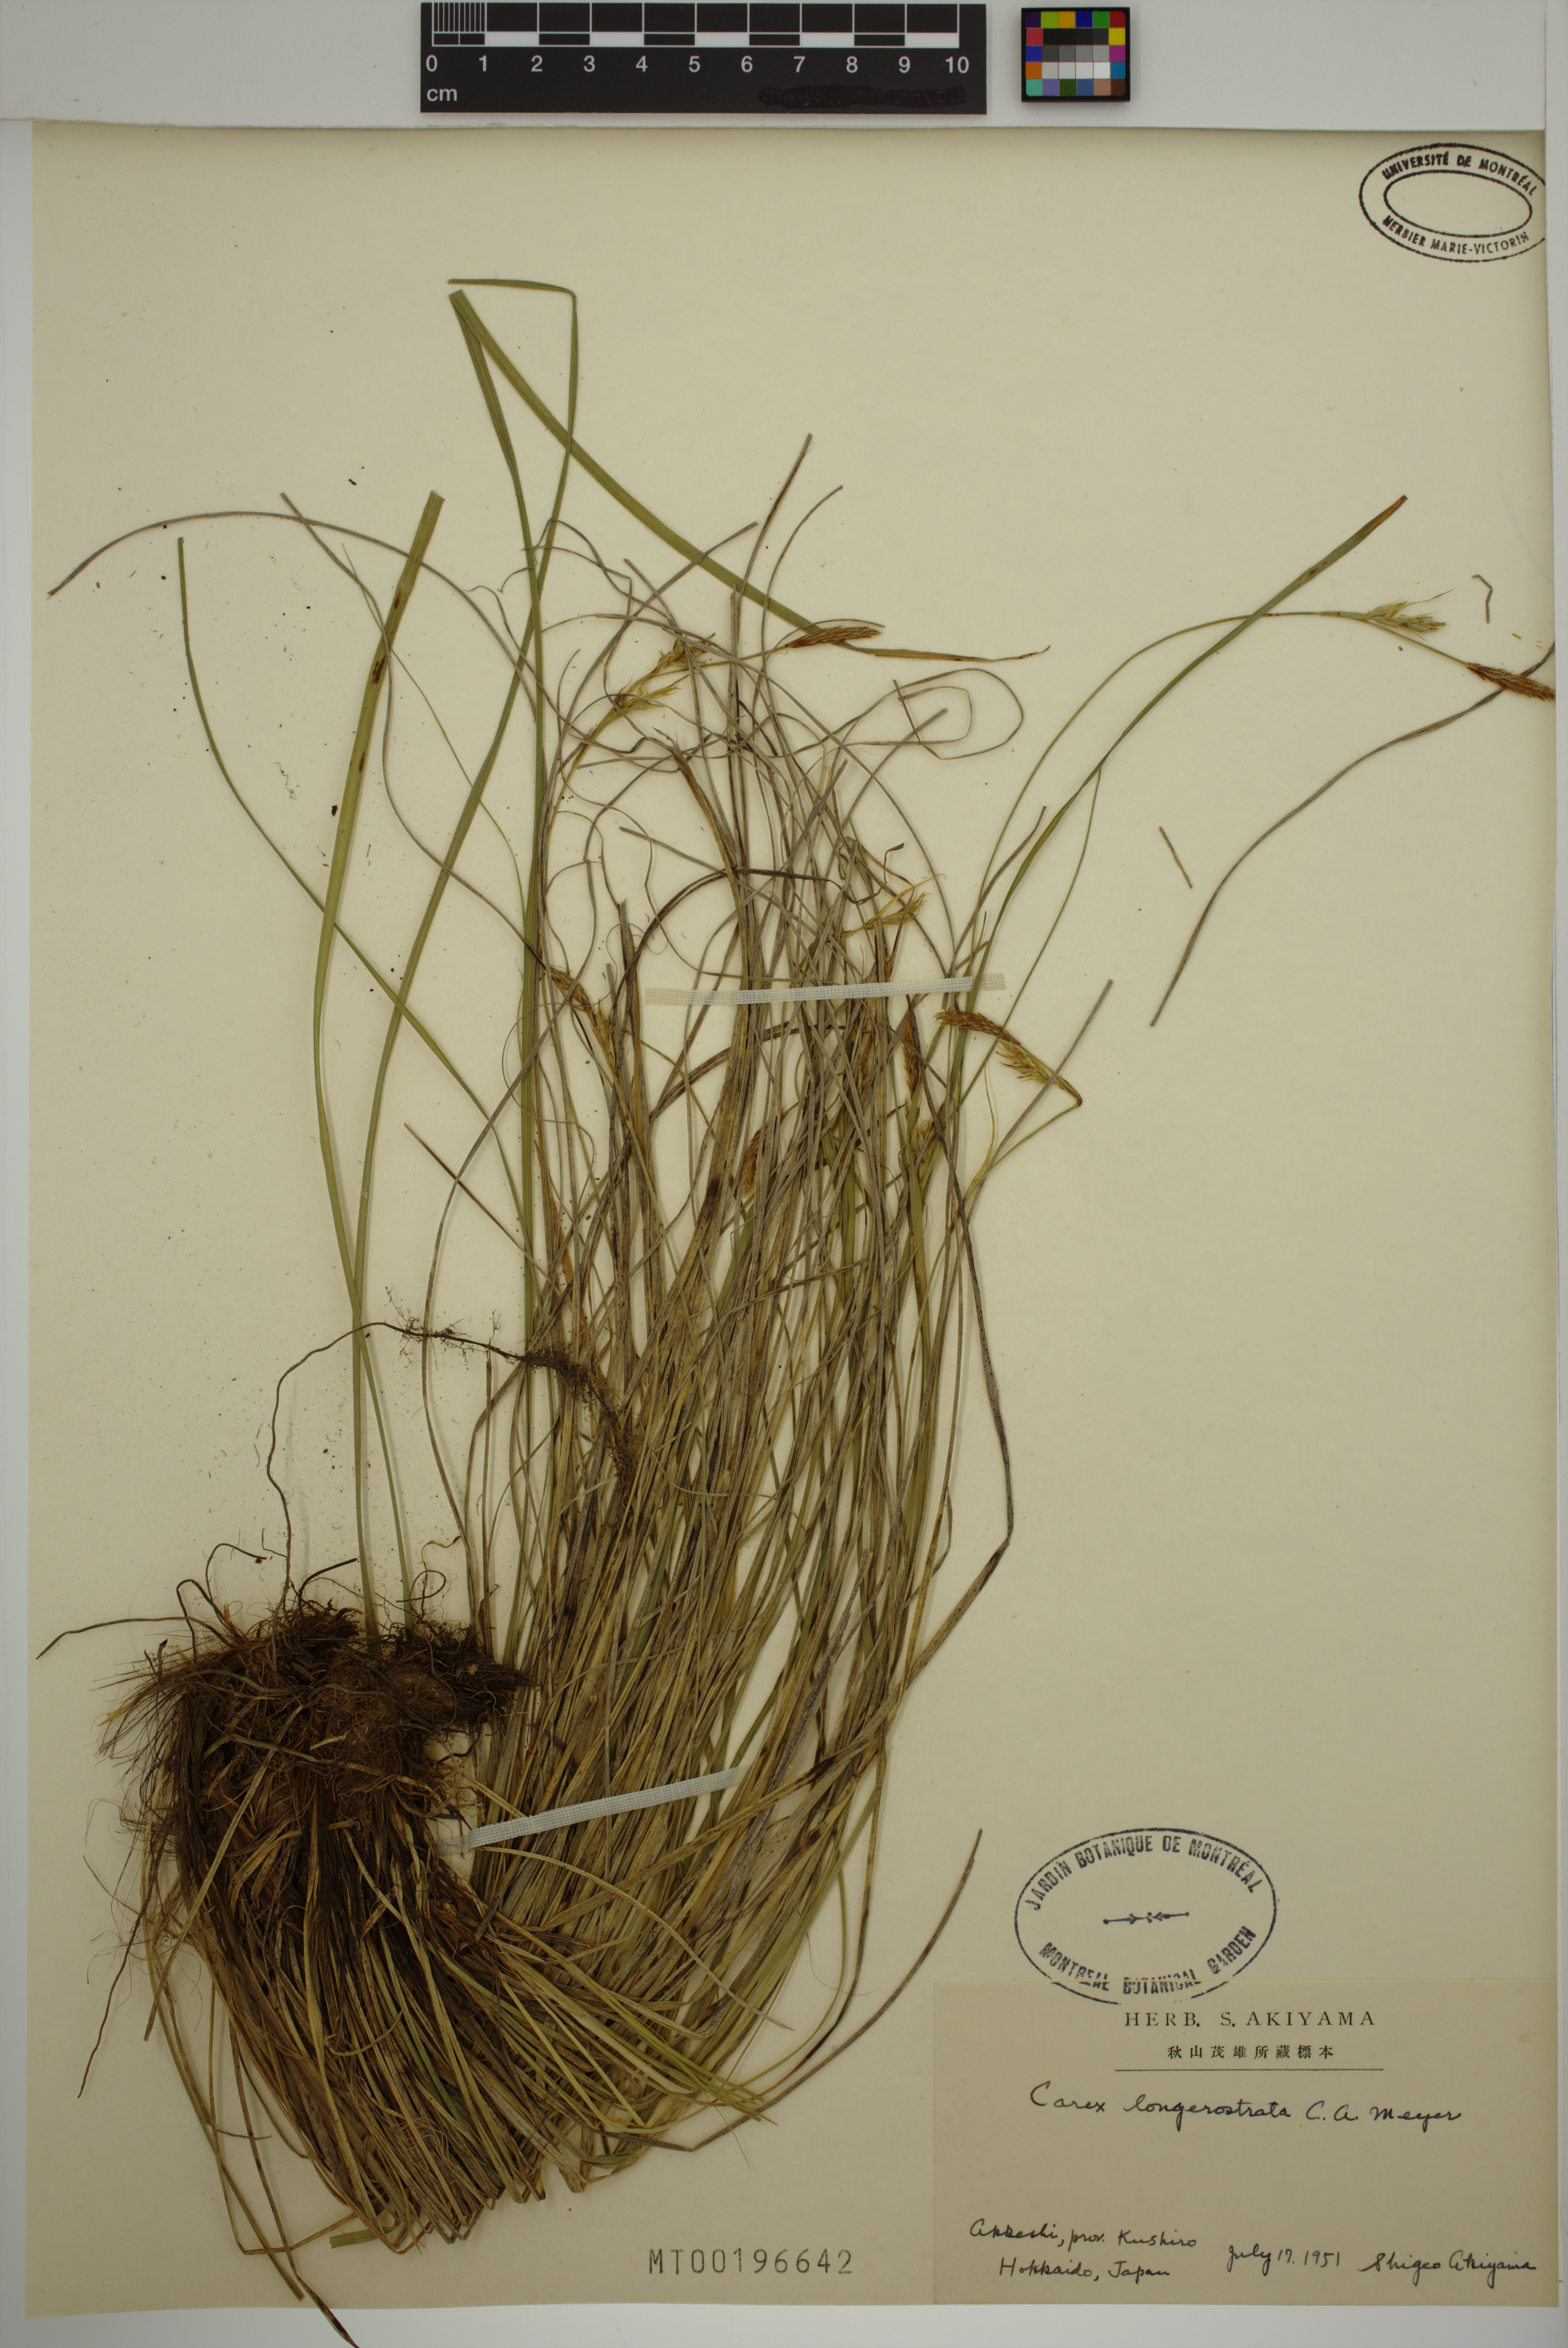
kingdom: Plantae
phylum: Tracheophyta
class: Liliopsida
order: Poales
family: Cyperaceae
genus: Carex
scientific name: Carex longerostrata
